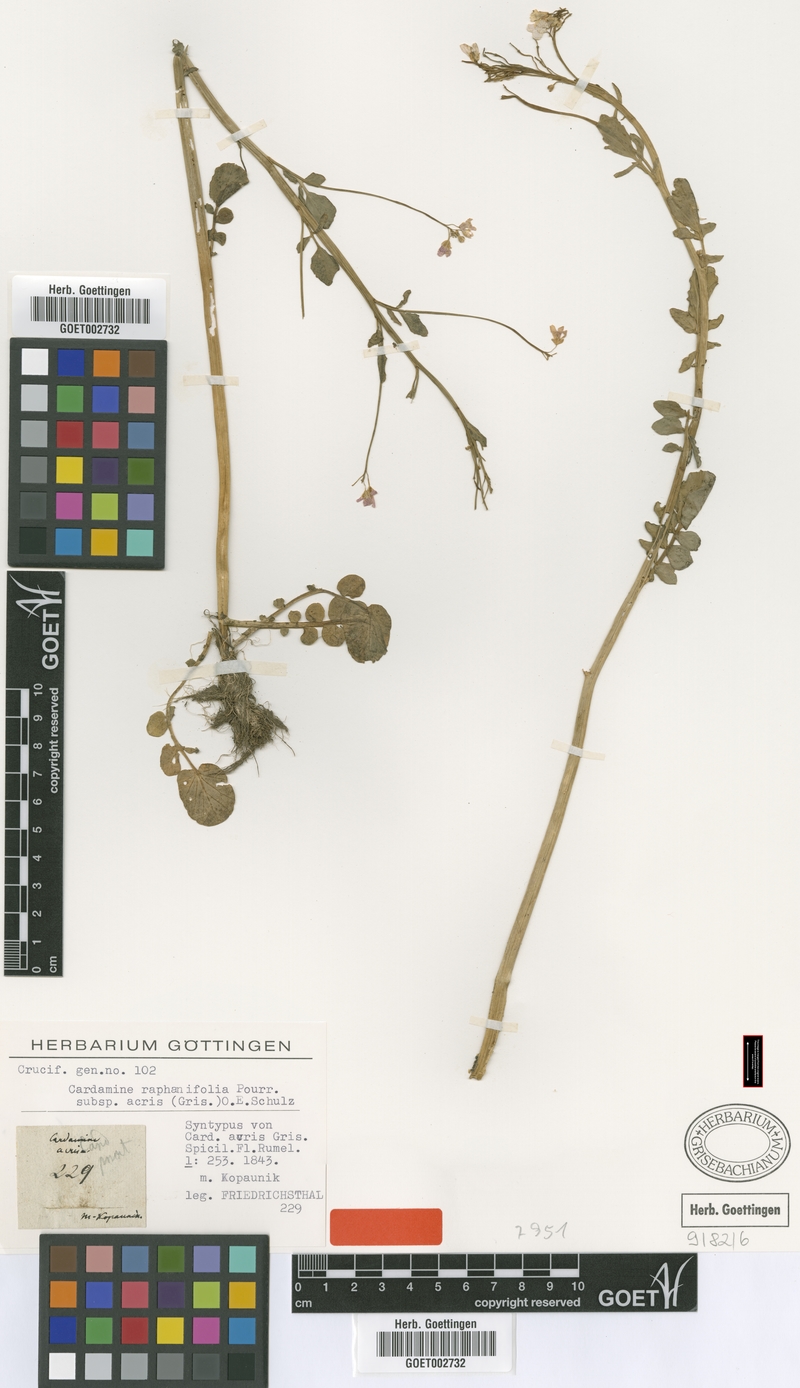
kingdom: Plantae
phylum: Tracheophyta
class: Magnoliopsida
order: Brassicales
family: Brassicaceae
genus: Cardamine
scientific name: Cardamine acris
